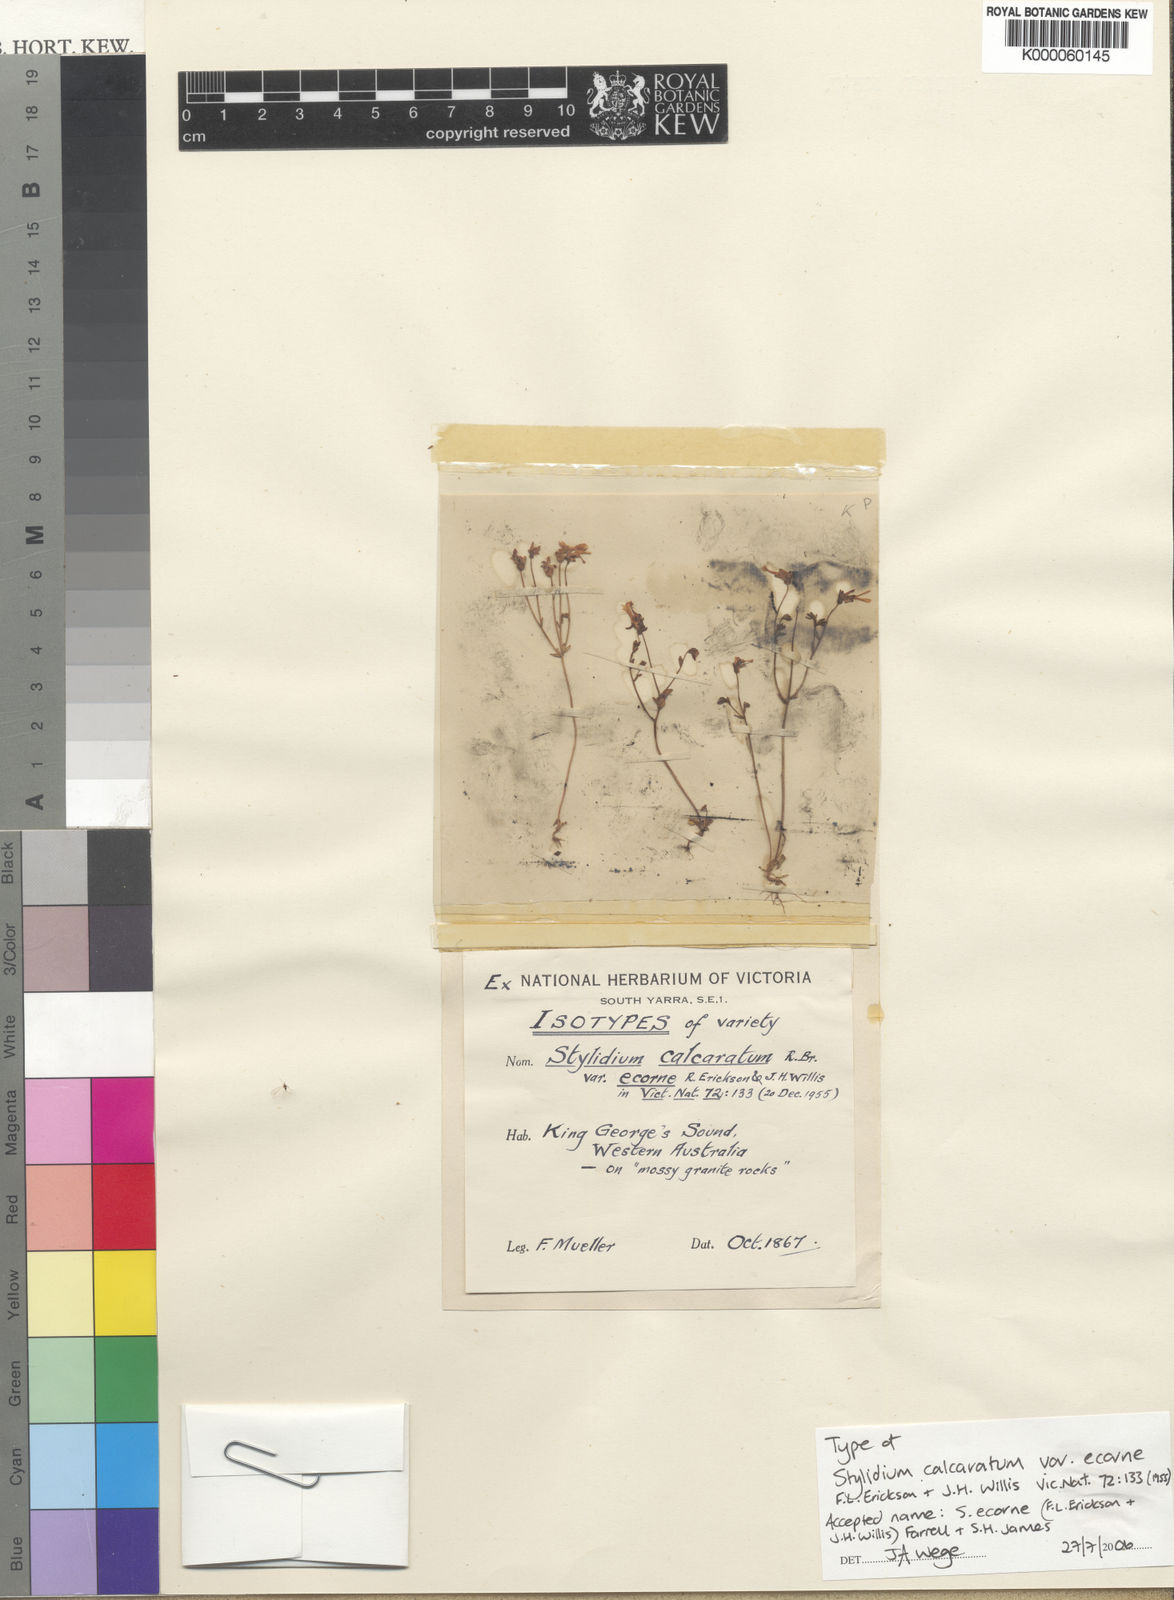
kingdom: Plantae
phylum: Tracheophyta
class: Magnoliopsida
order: Asterales
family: Stylidiaceae
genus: Stylidium
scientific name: Stylidium
